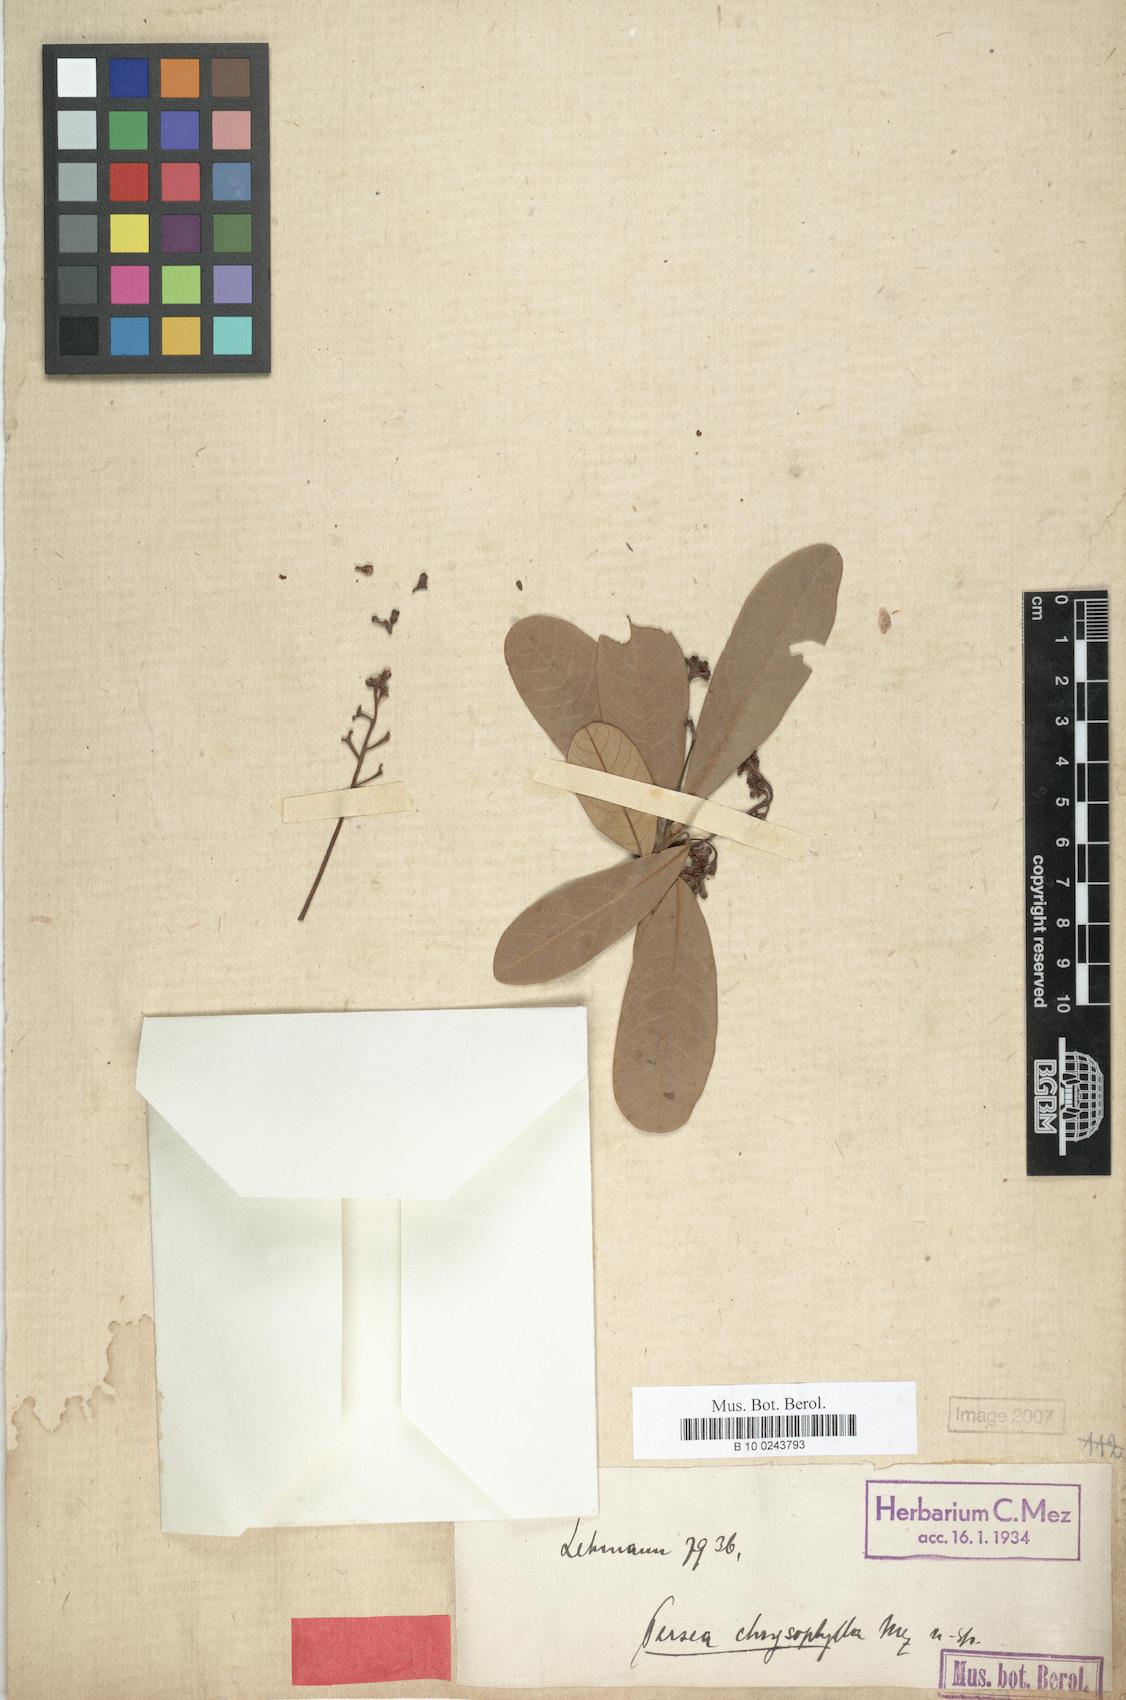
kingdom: Plantae
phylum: Tracheophyta
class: Magnoliopsida
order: Laurales
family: Lauraceae
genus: Persea
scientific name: Persea chrysophylla
